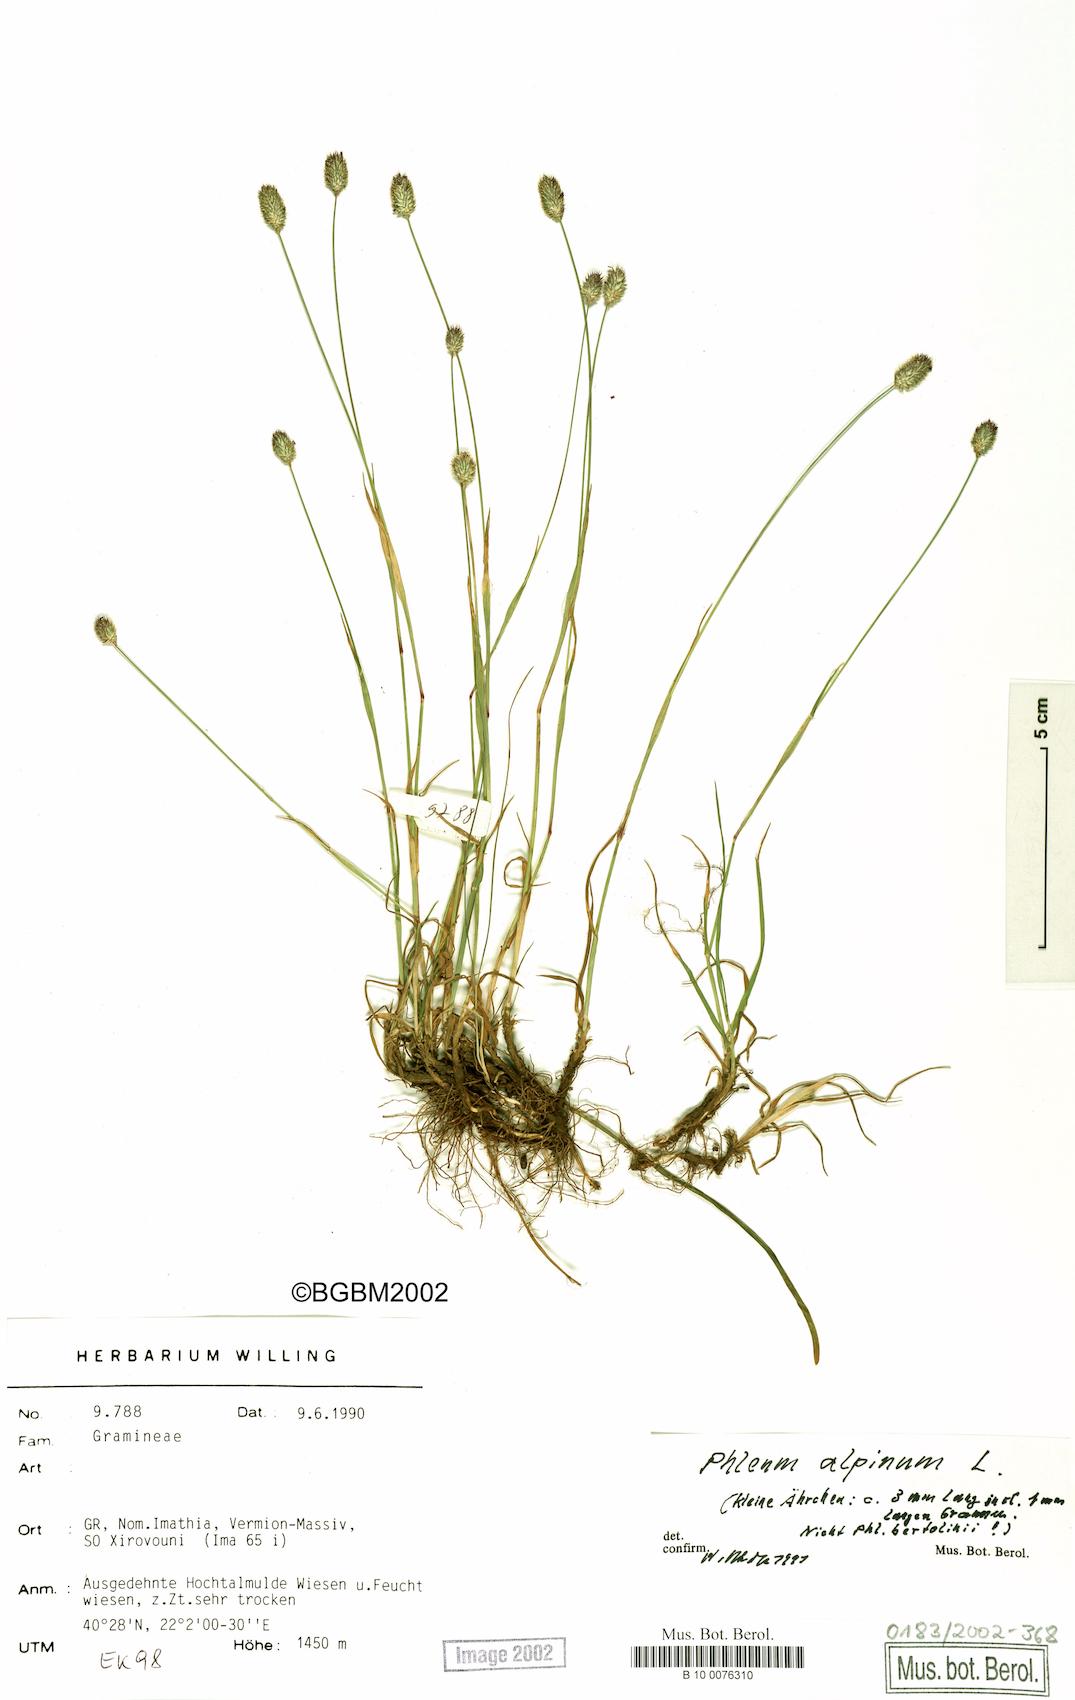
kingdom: Plantae
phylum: Tracheophyta
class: Liliopsida
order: Poales
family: Poaceae
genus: Phleum
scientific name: Phleum alpinum
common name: Alpine cat's-tail
